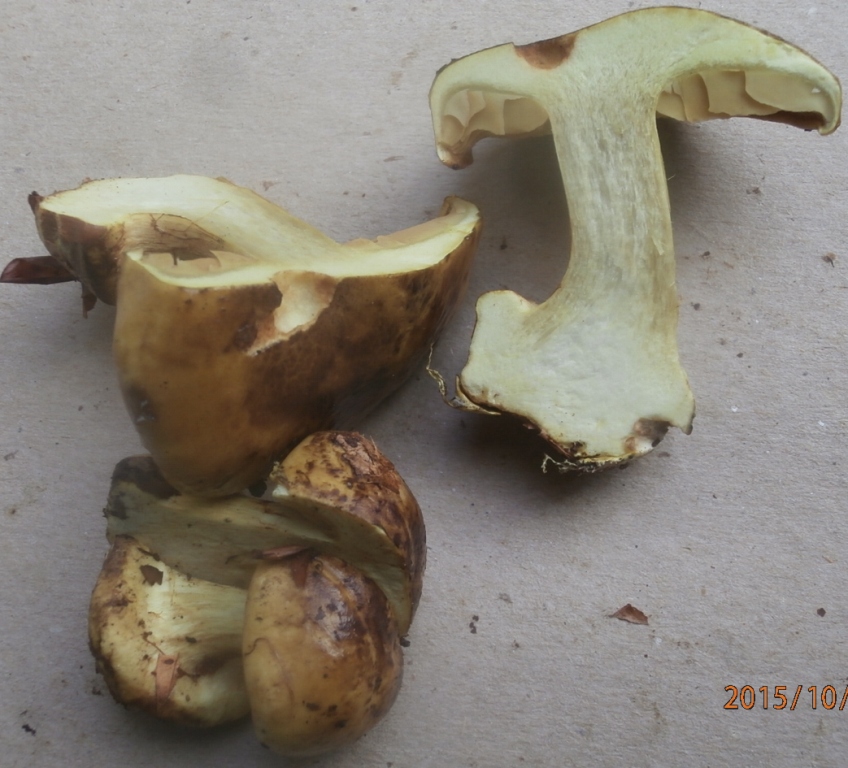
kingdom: Fungi
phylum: Basidiomycota
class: Agaricomycetes
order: Agaricales
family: Cortinariaceae
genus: Calonarius
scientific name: Calonarius citrinus
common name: citrongul slørhat
